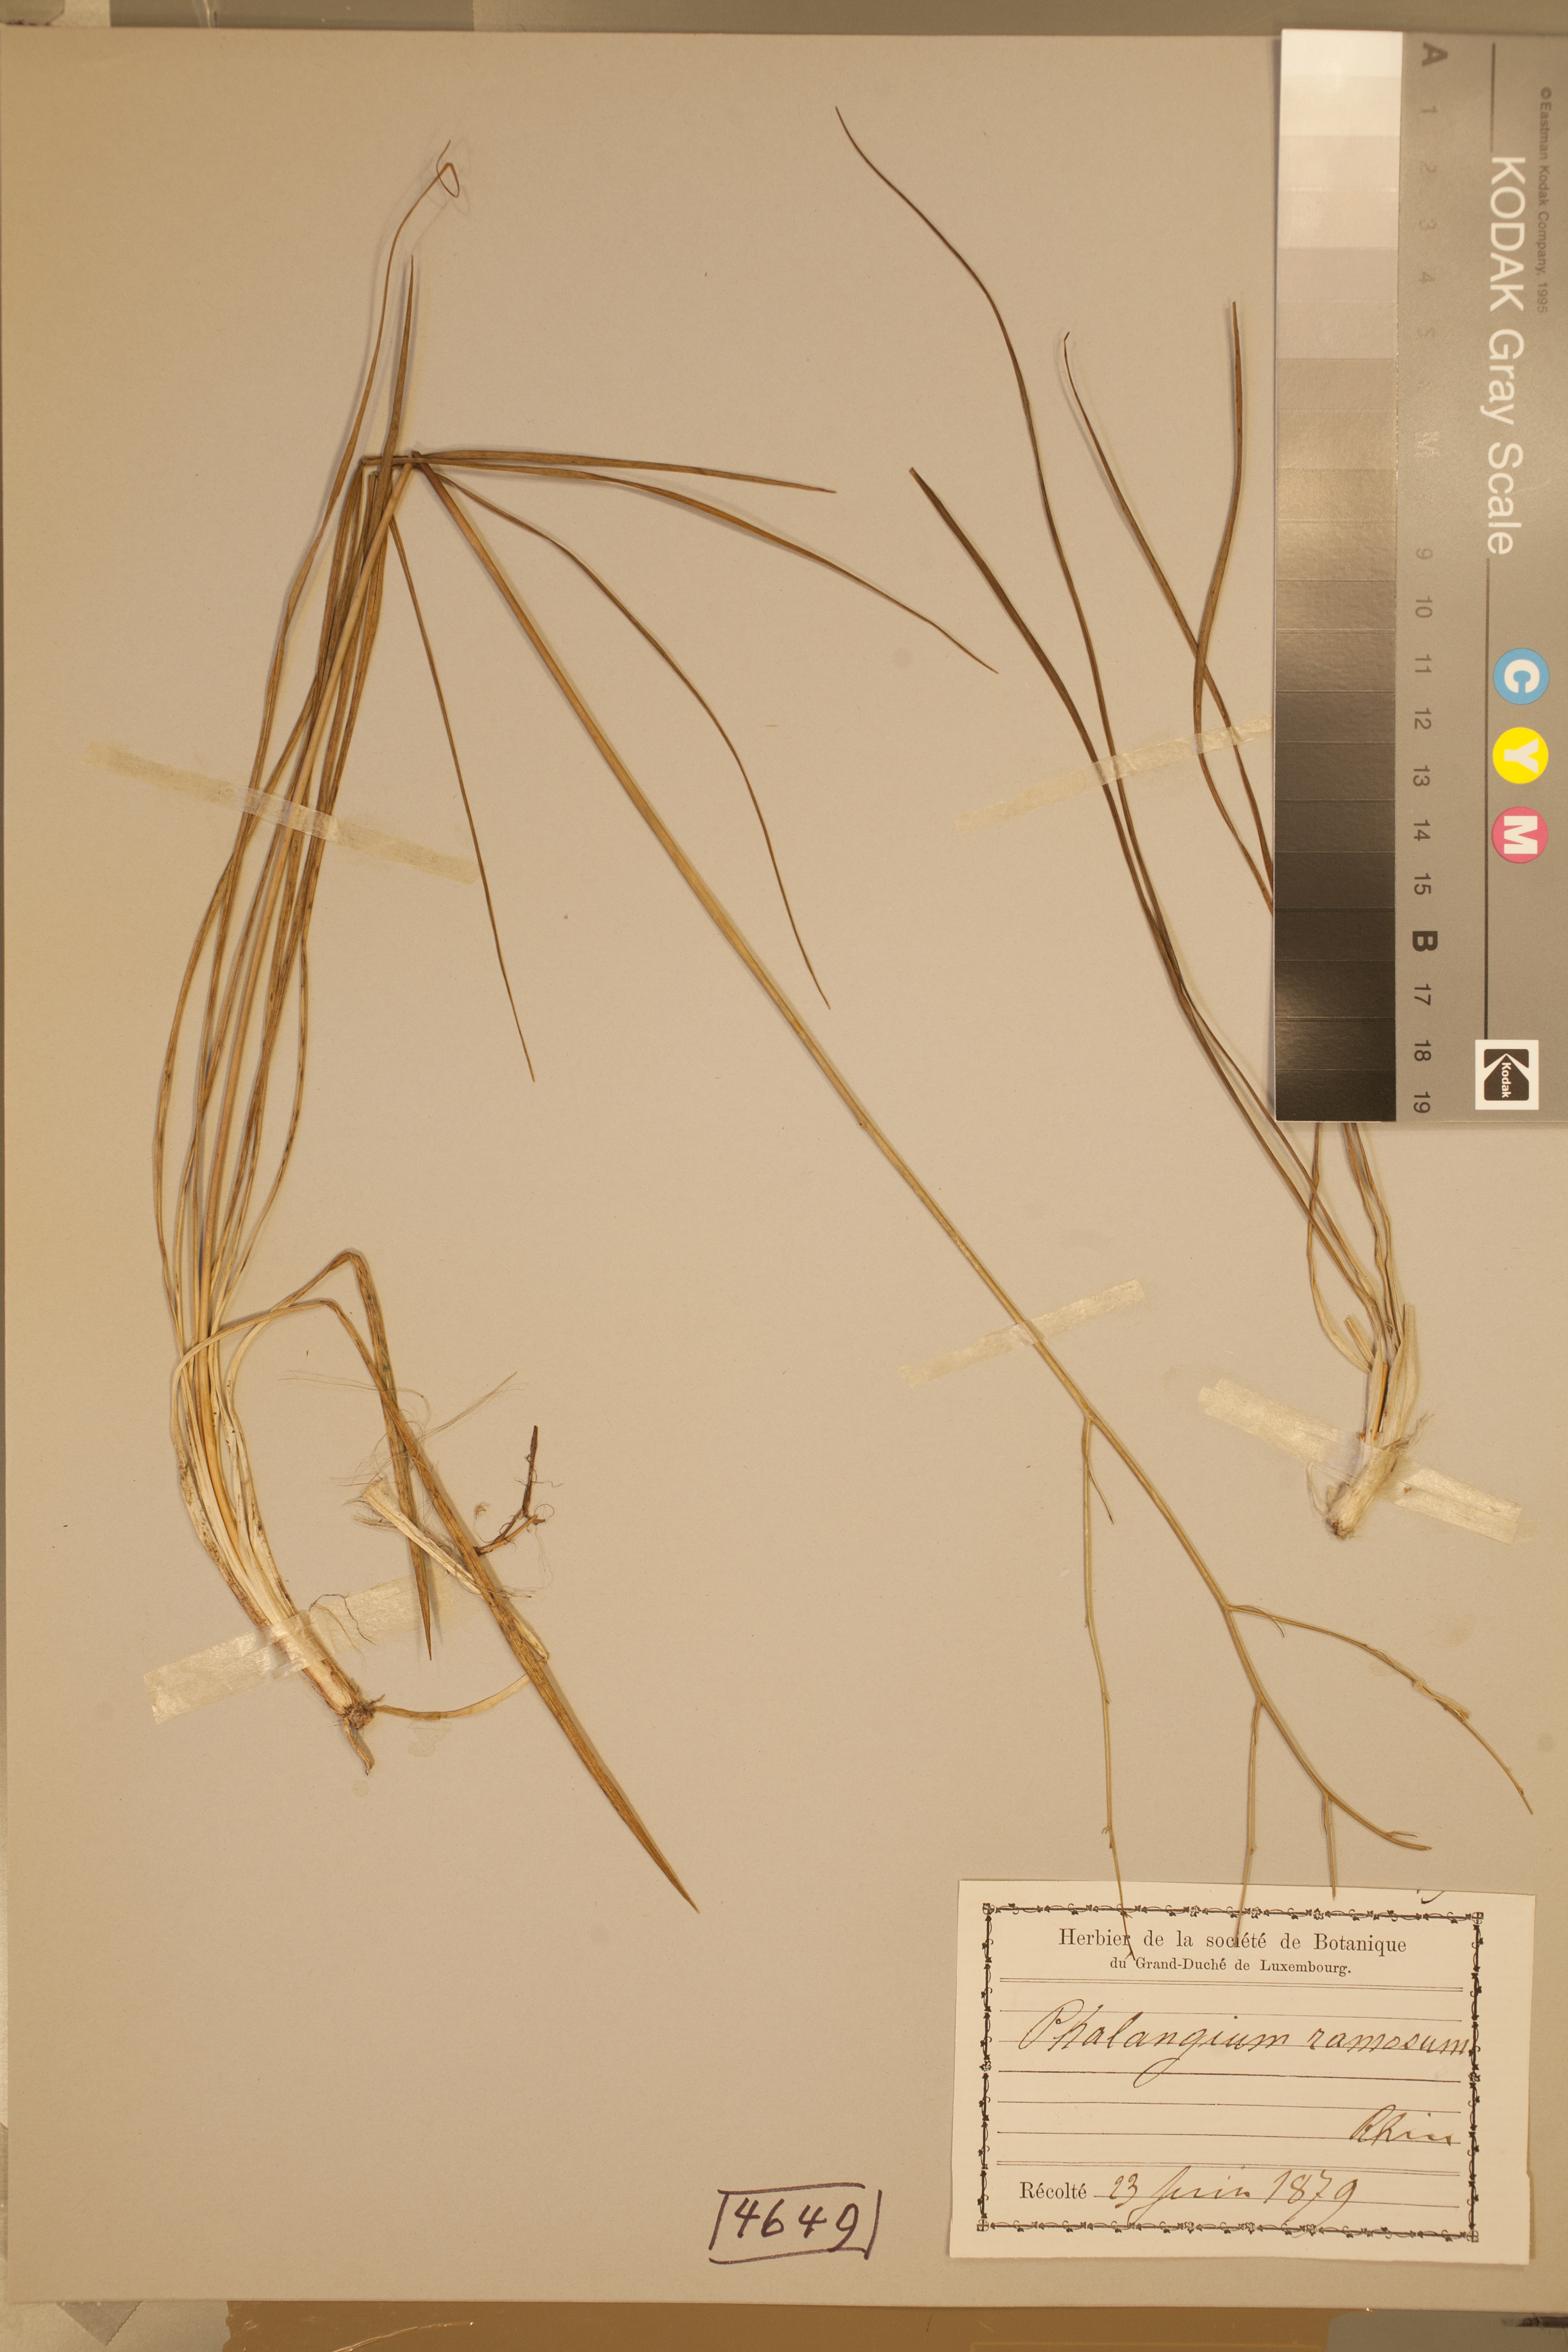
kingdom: Plantae
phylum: Tracheophyta
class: Liliopsida
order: Asparagales
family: Asparagaceae
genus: Anthericum
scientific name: Anthericum ramosum
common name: Branched st. bernard's-lily
